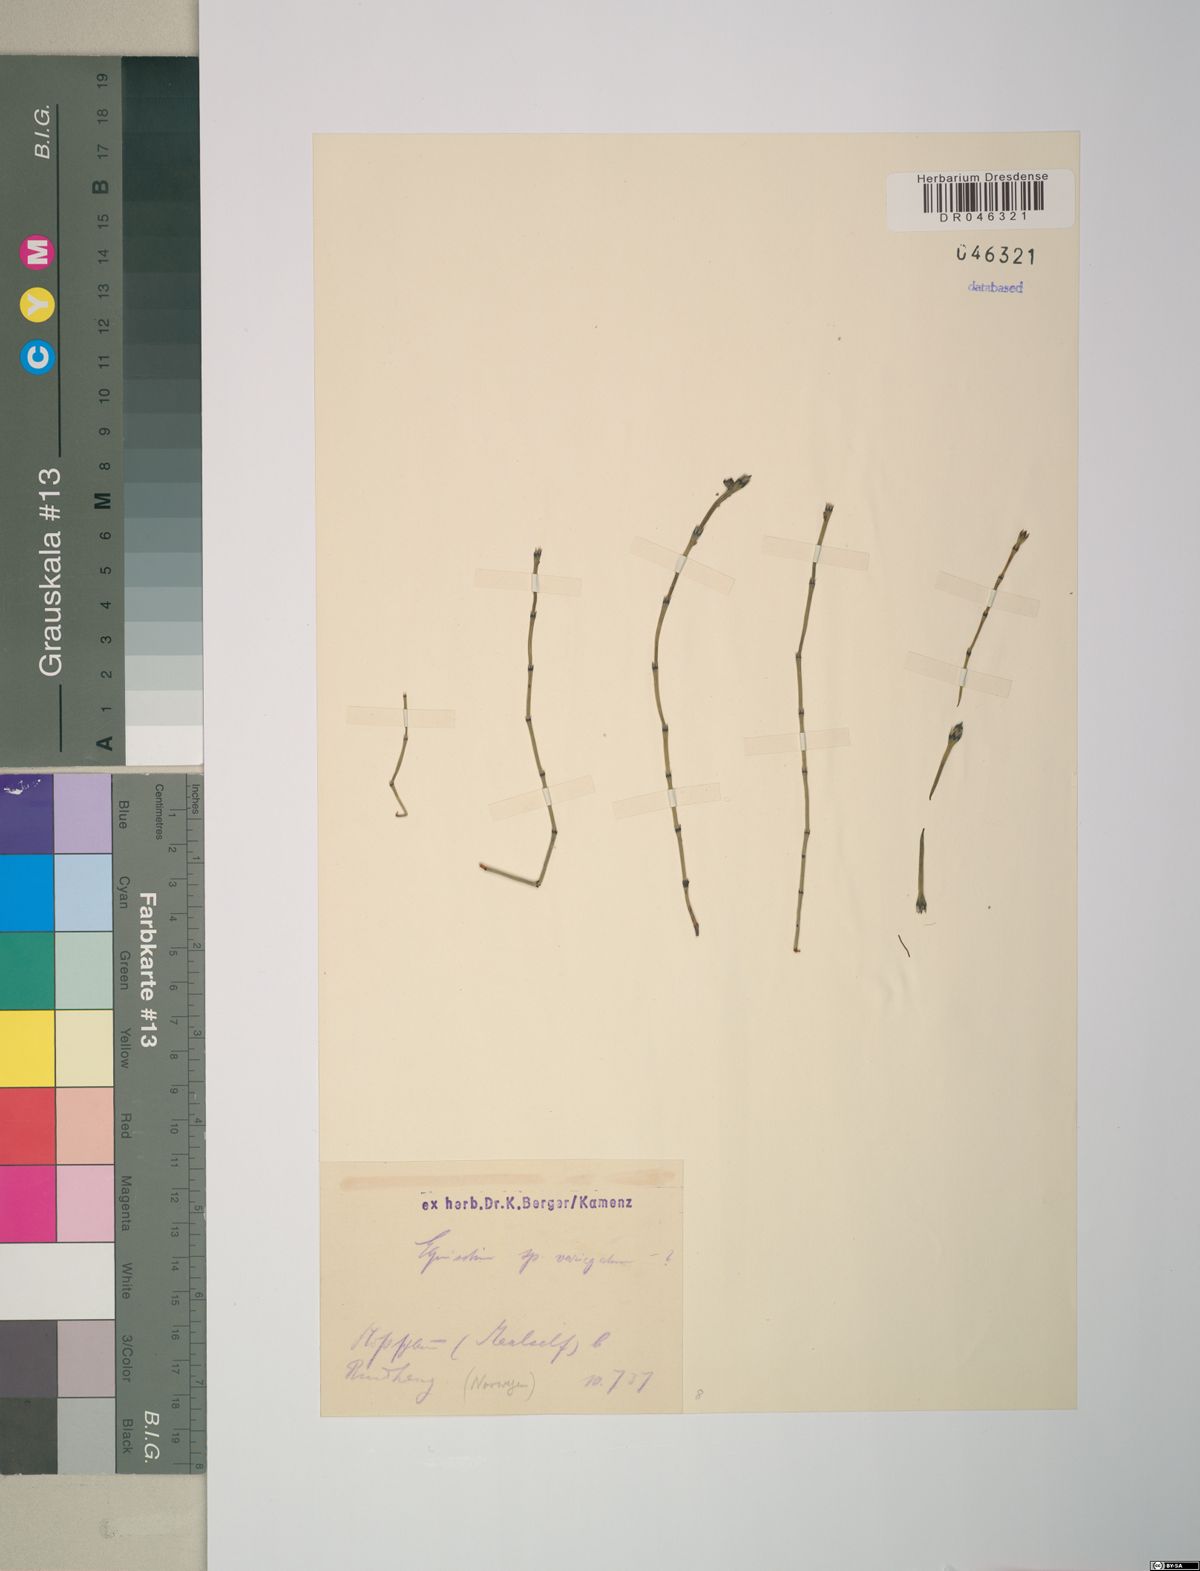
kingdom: Plantae
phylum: Tracheophyta
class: Polypodiopsida
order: Equisetales
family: Equisetaceae
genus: Equisetum
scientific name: Equisetum variegatum
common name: Variegated horsetail
